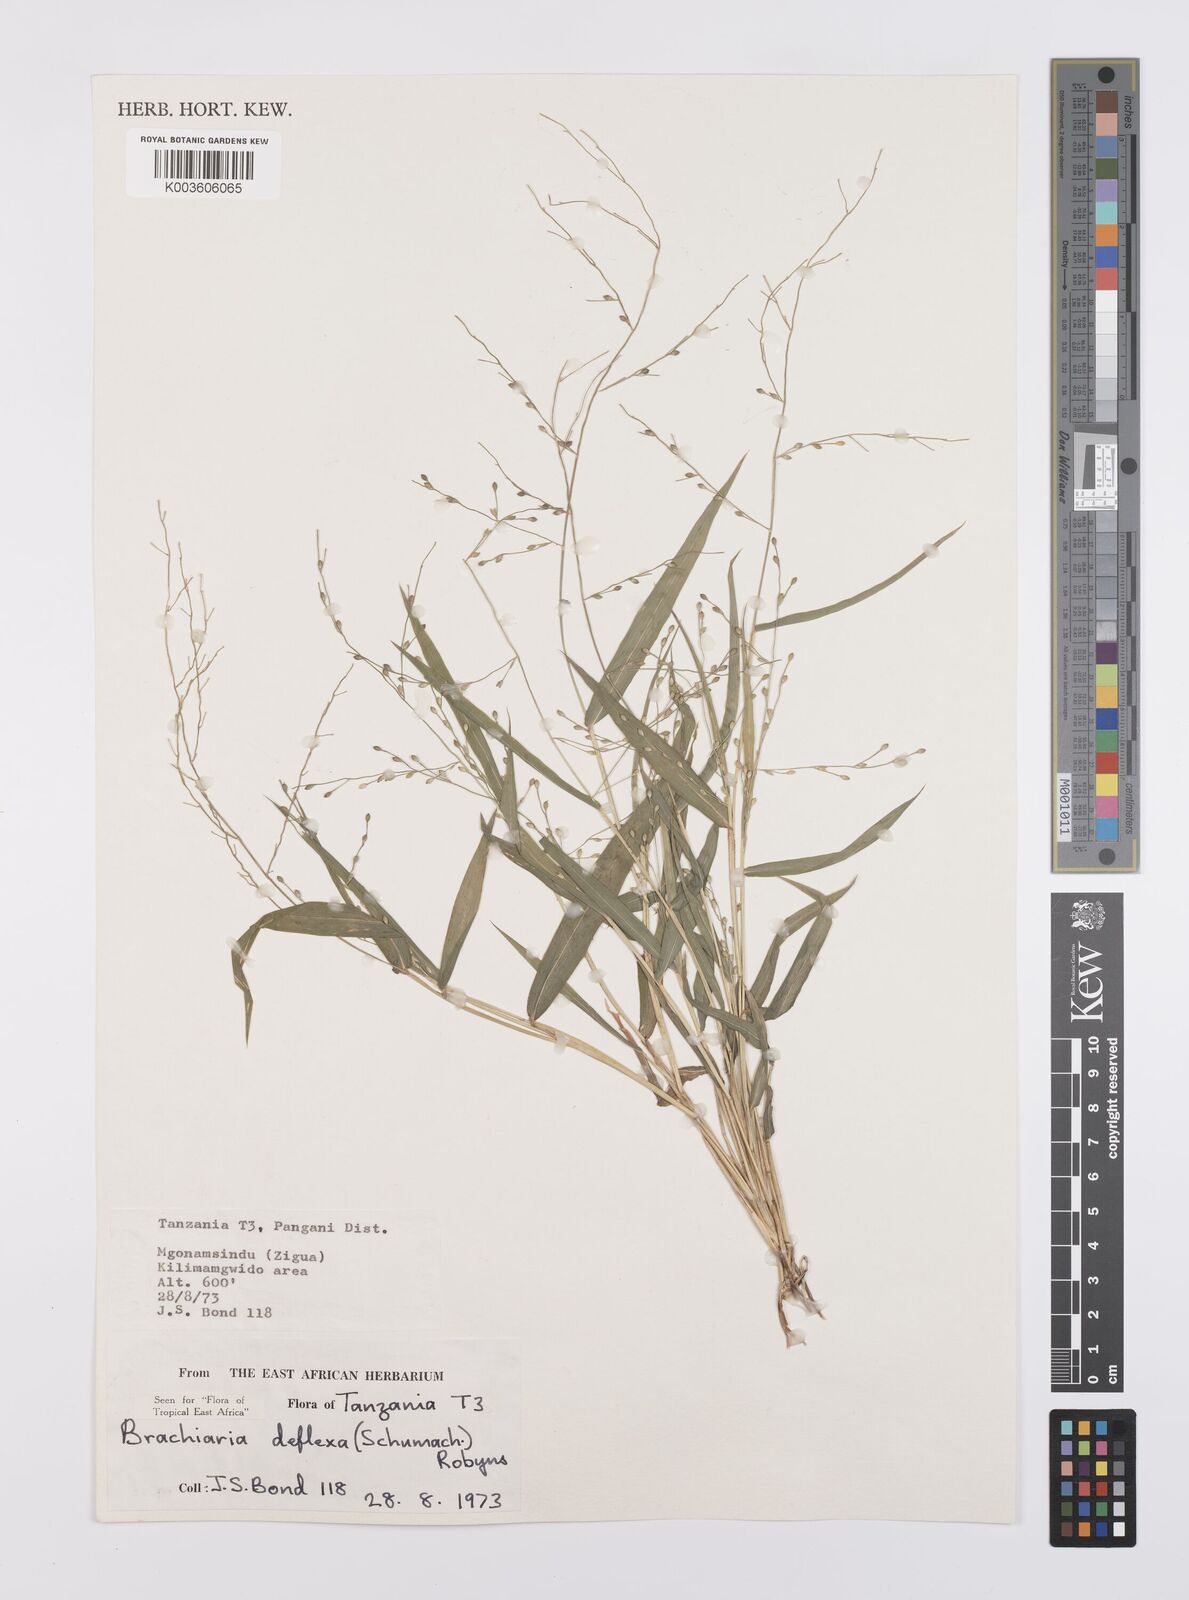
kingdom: Plantae
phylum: Tracheophyta
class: Liliopsida
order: Poales
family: Poaceae
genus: Urochloa
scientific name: Urochloa deflexa
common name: Guinea millet
